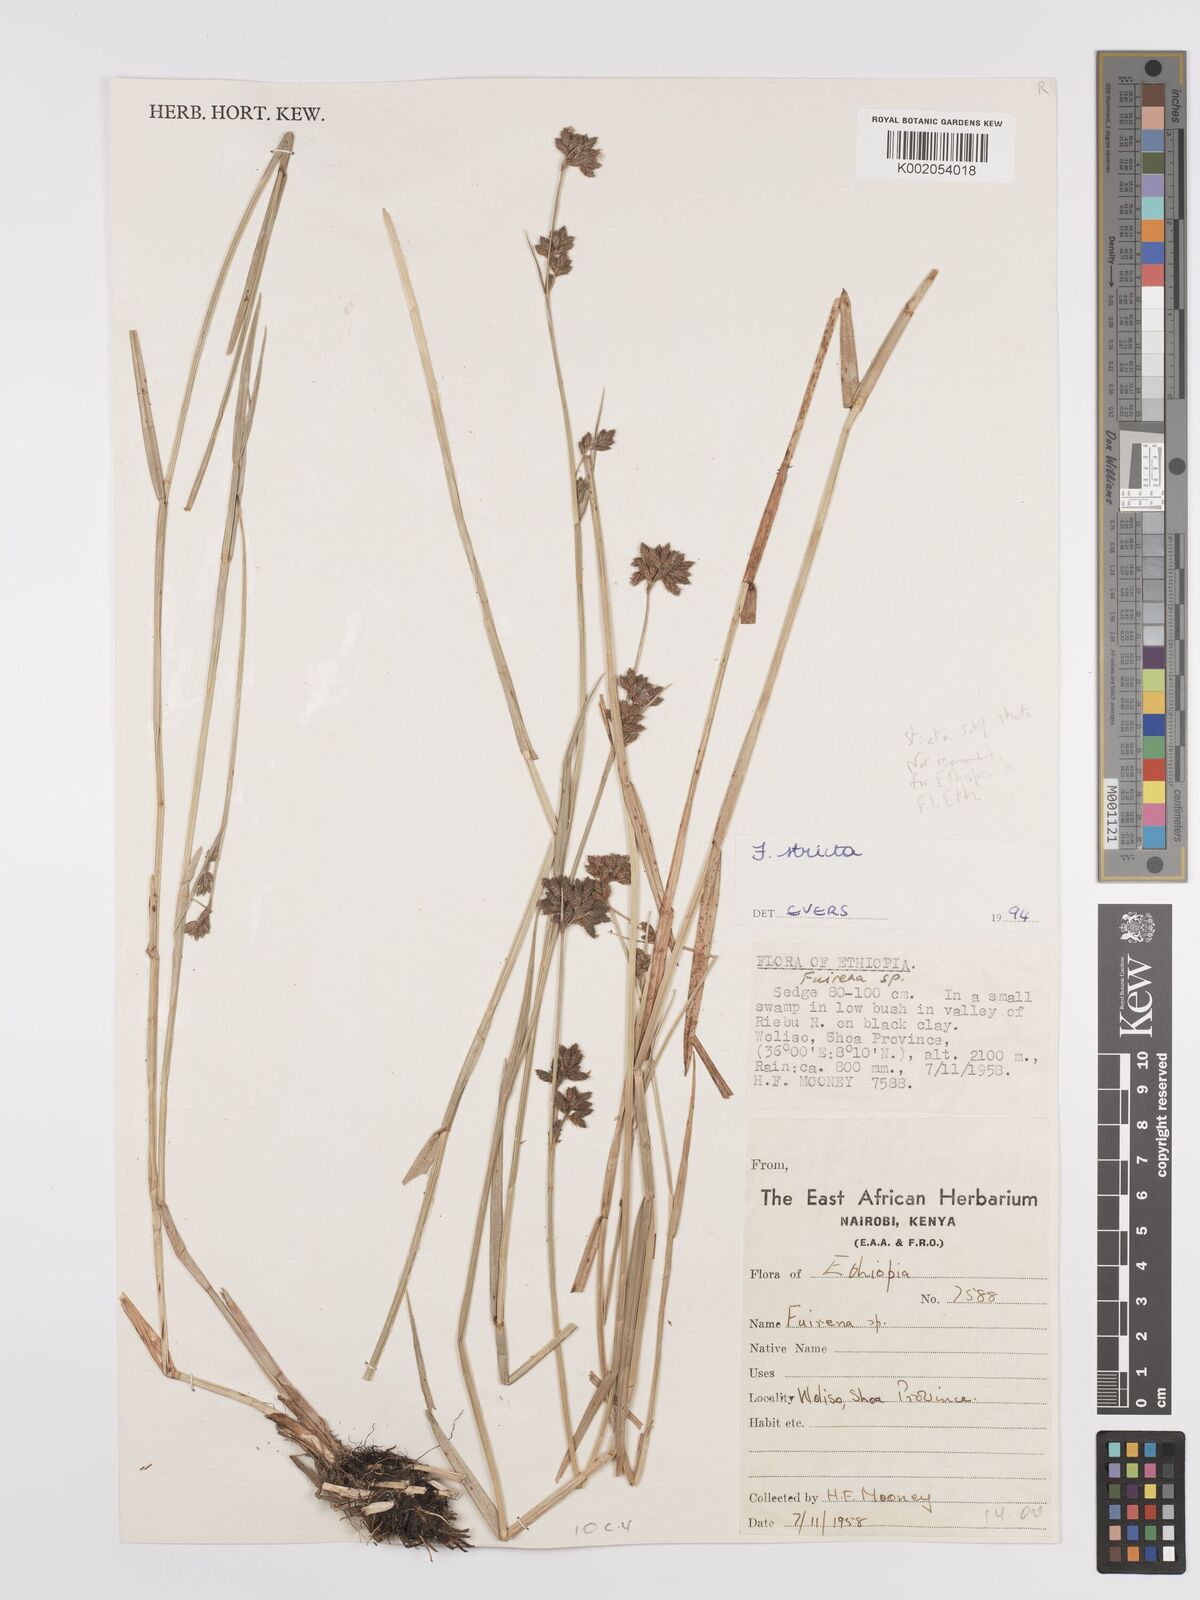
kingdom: Plantae
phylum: Tracheophyta
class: Liliopsida
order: Poales
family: Cyperaceae
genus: Fuirena
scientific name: Fuirena stricta
